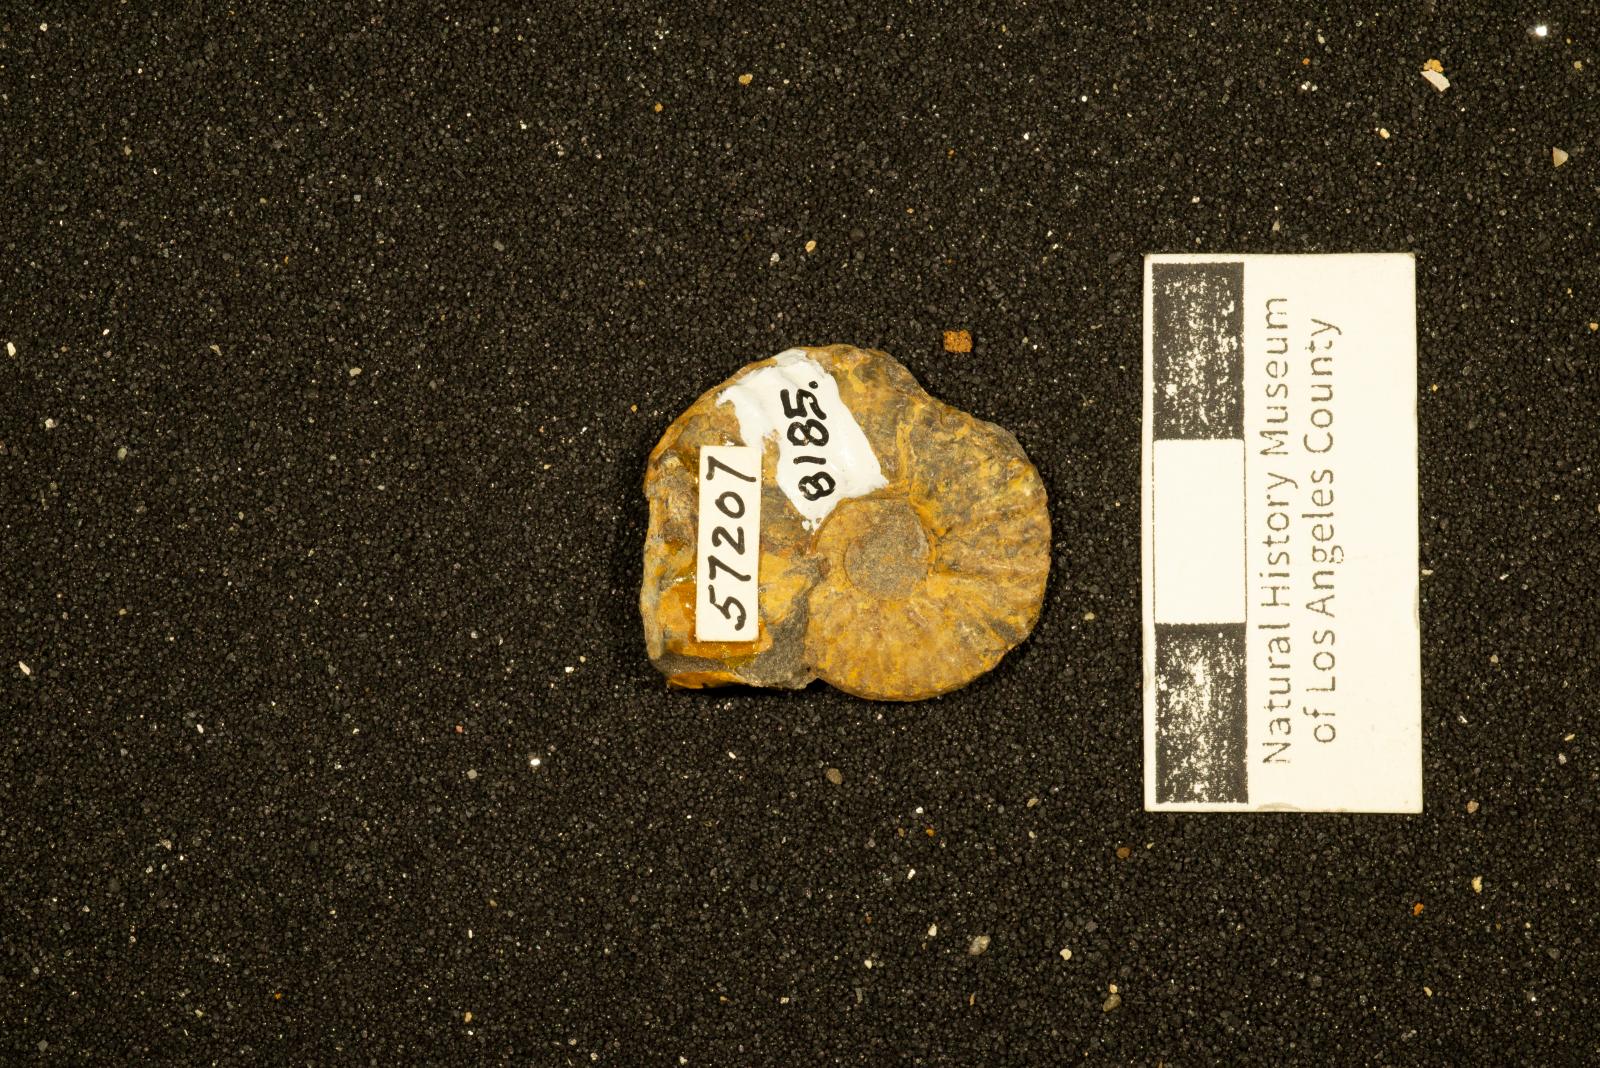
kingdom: Animalia
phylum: Mollusca
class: Cephalopoda
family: Collignoniceratidae
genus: Subprionocyclus
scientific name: Subprionocyclus
